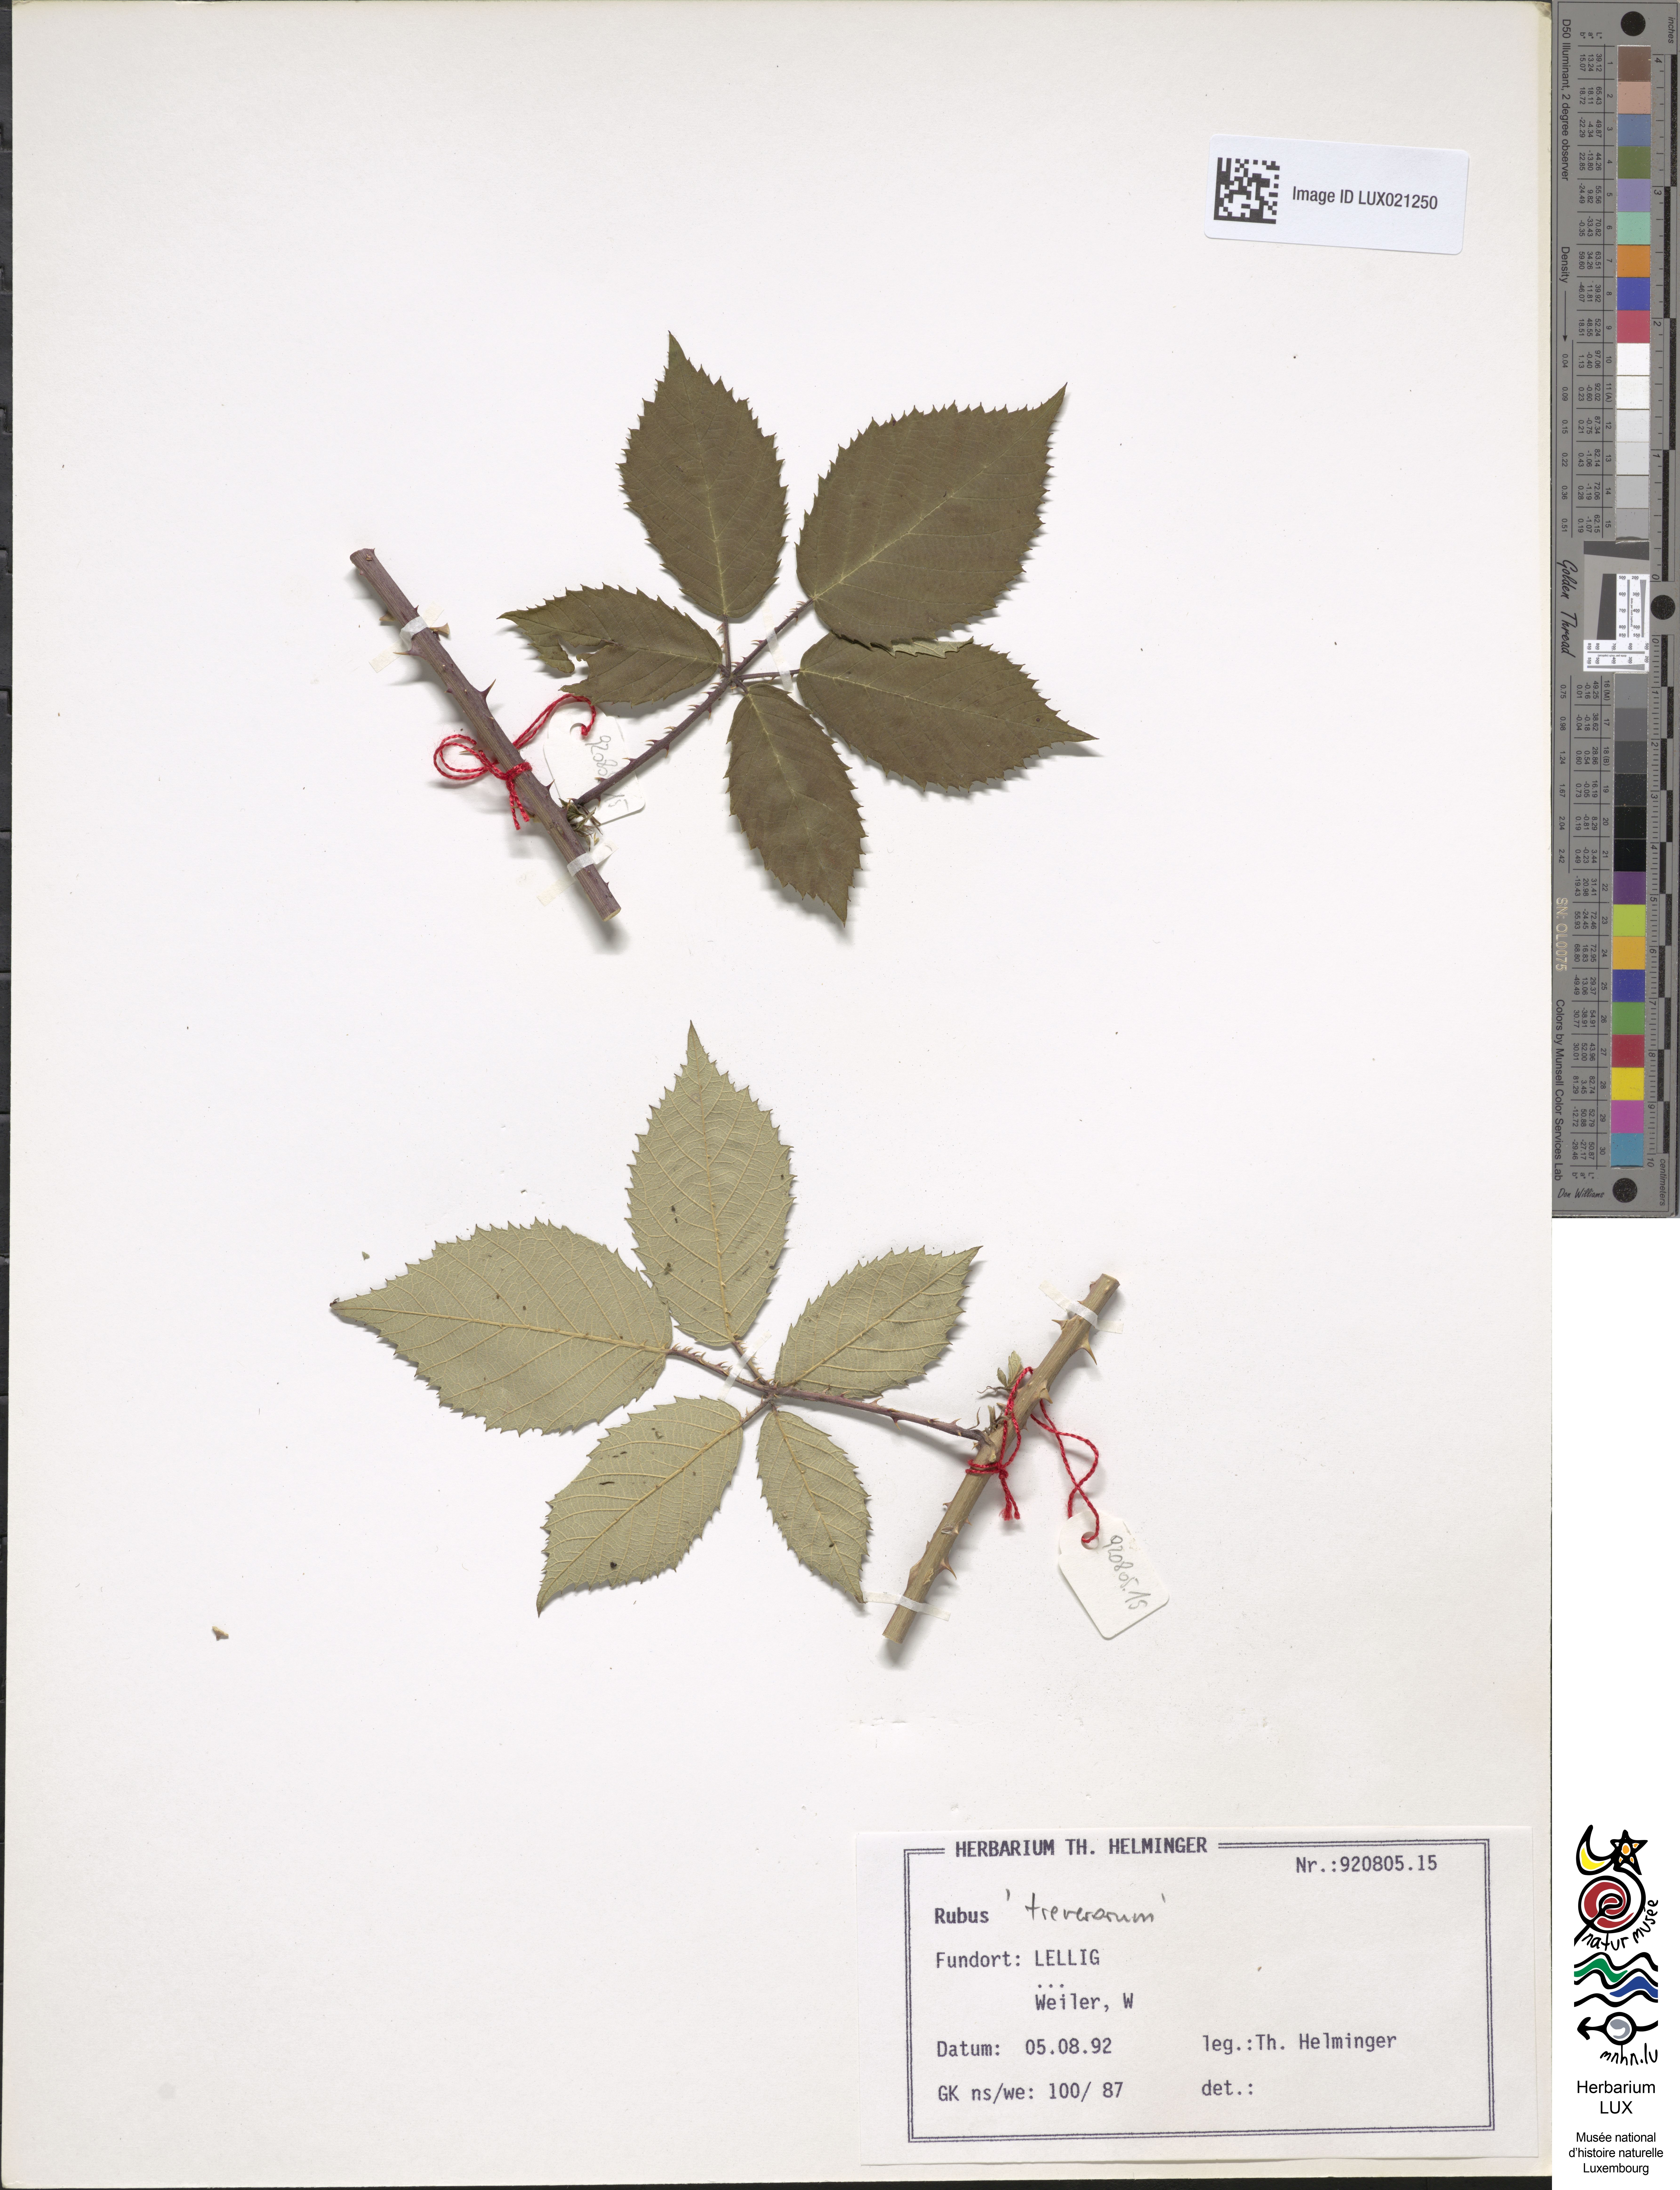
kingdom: Plantae
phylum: Tracheophyta
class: Magnoliopsida
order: Rosales
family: Rosaceae
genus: Rubus
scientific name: Rubus
